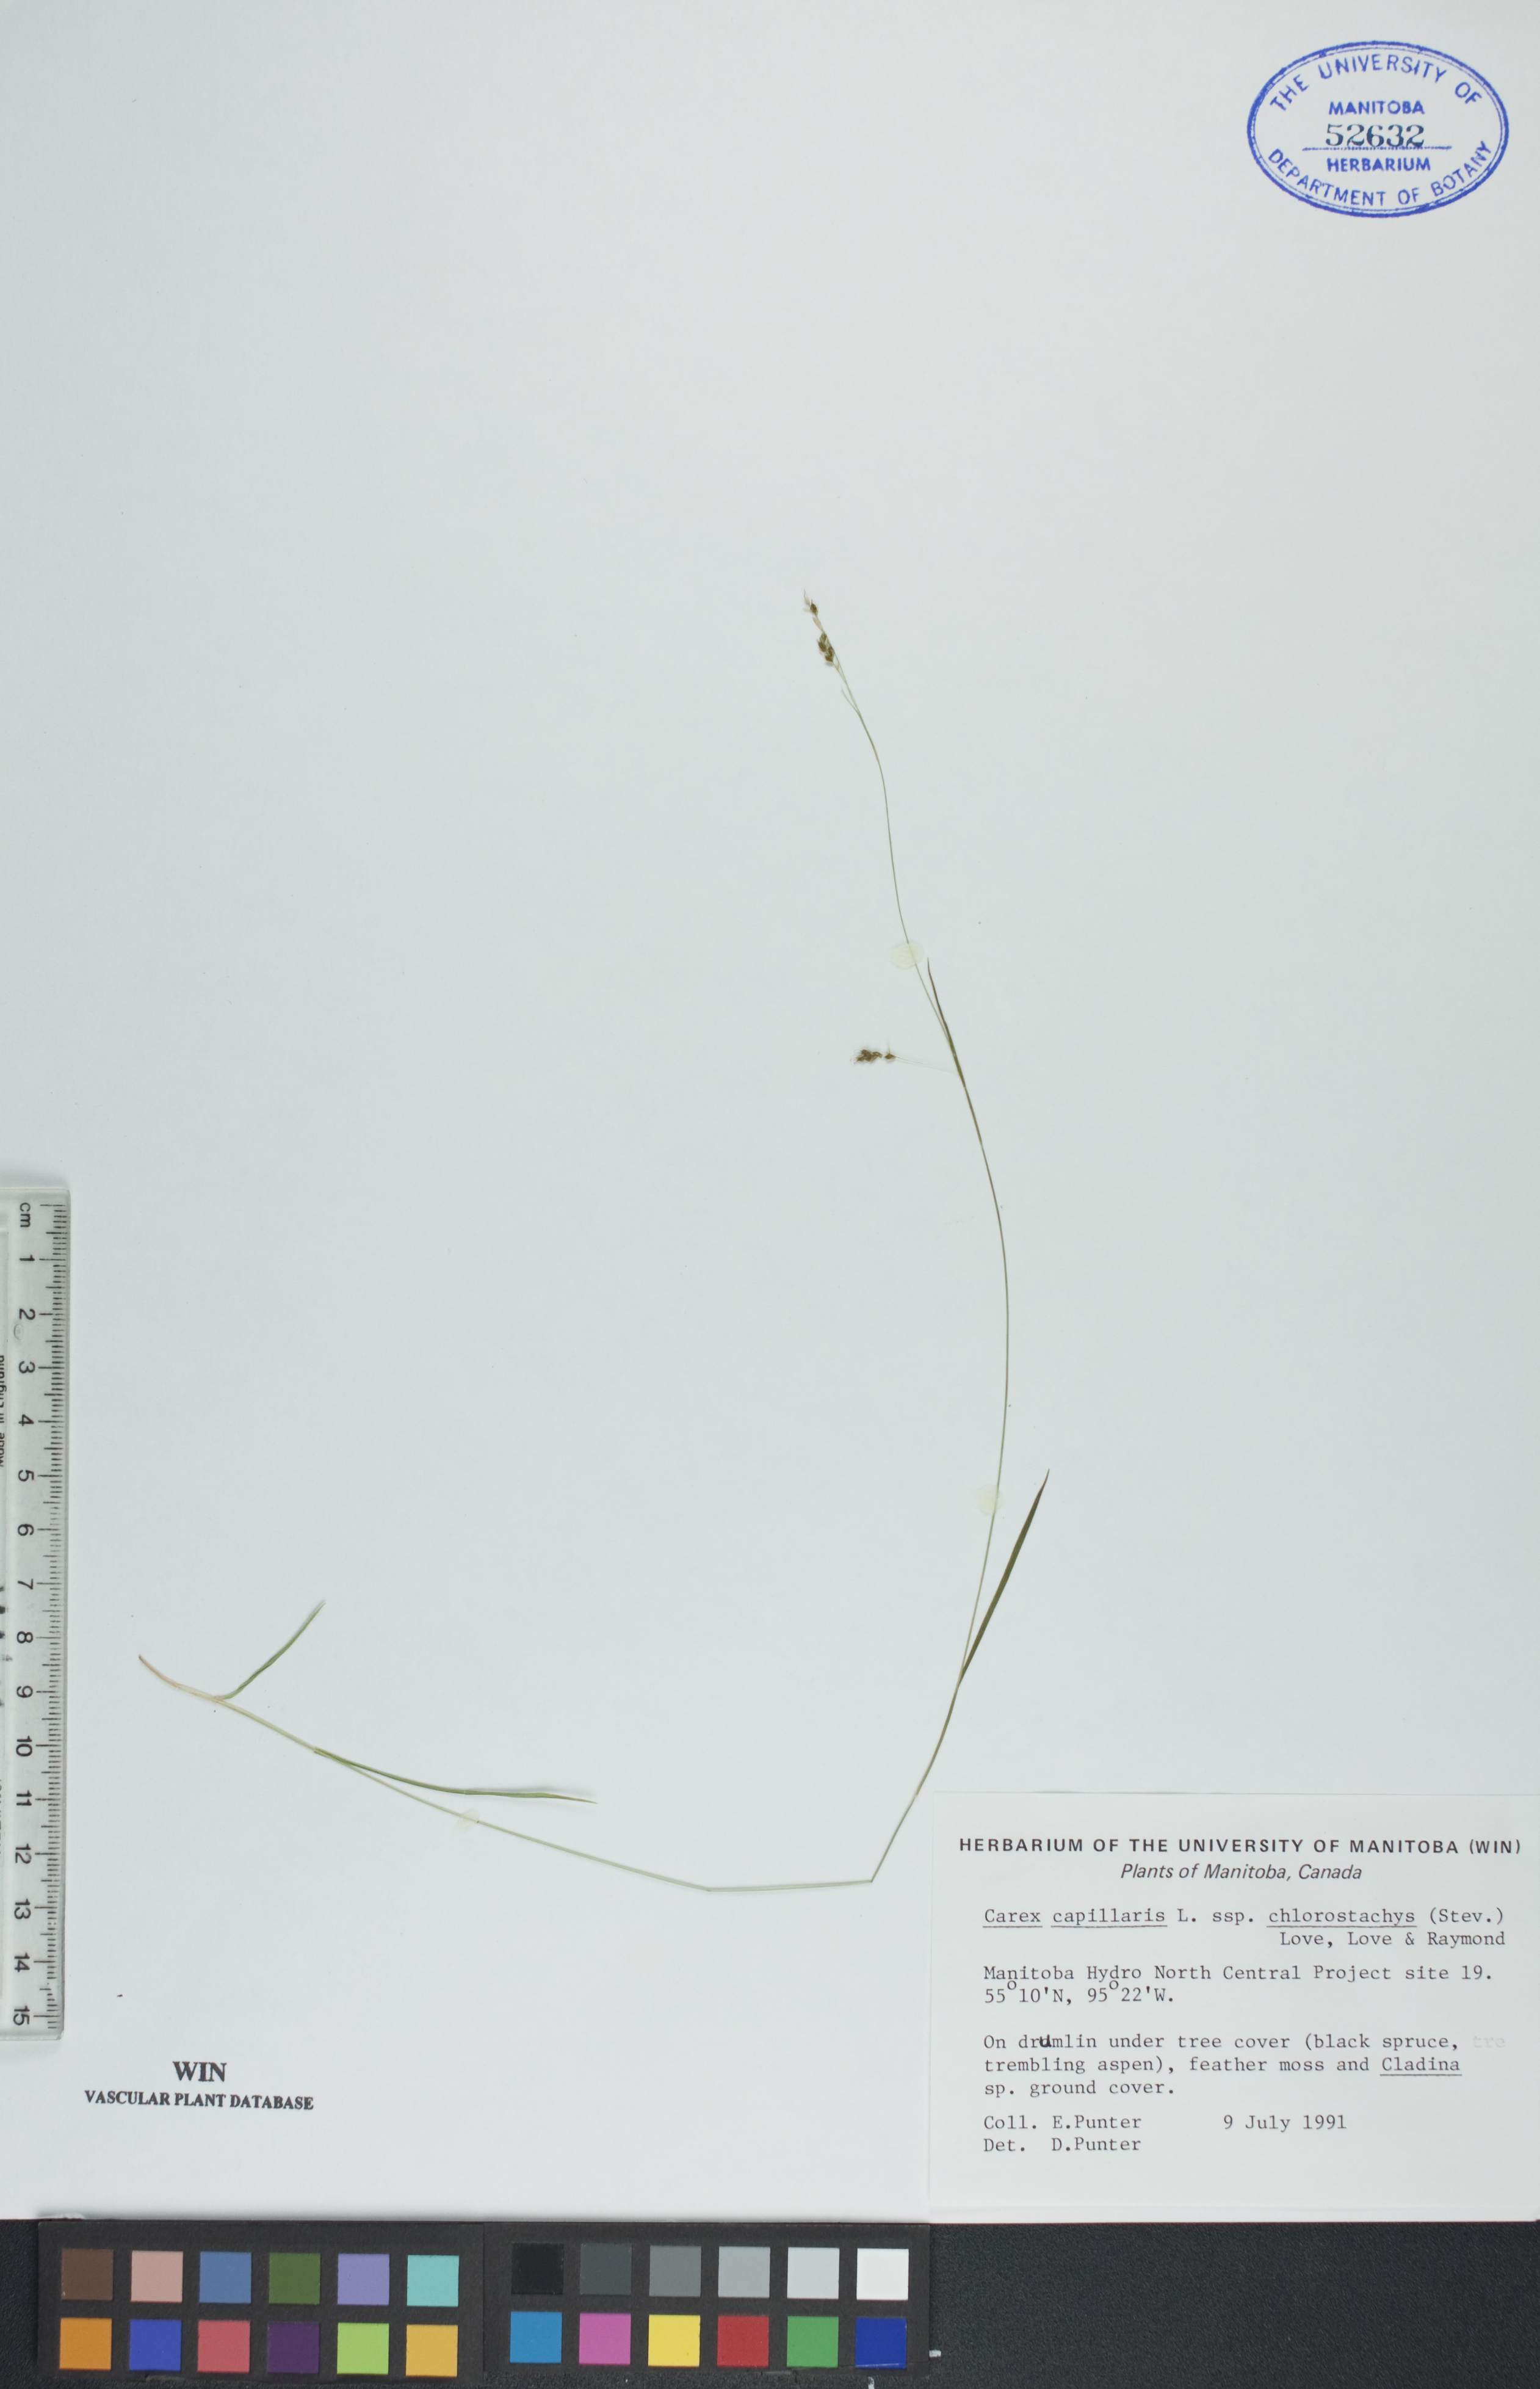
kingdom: Plantae
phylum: Tracheophyta
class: Liliopsida
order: Poales
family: Cyperaceae
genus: Carex
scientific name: Carex capillaris
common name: Hair sedge
